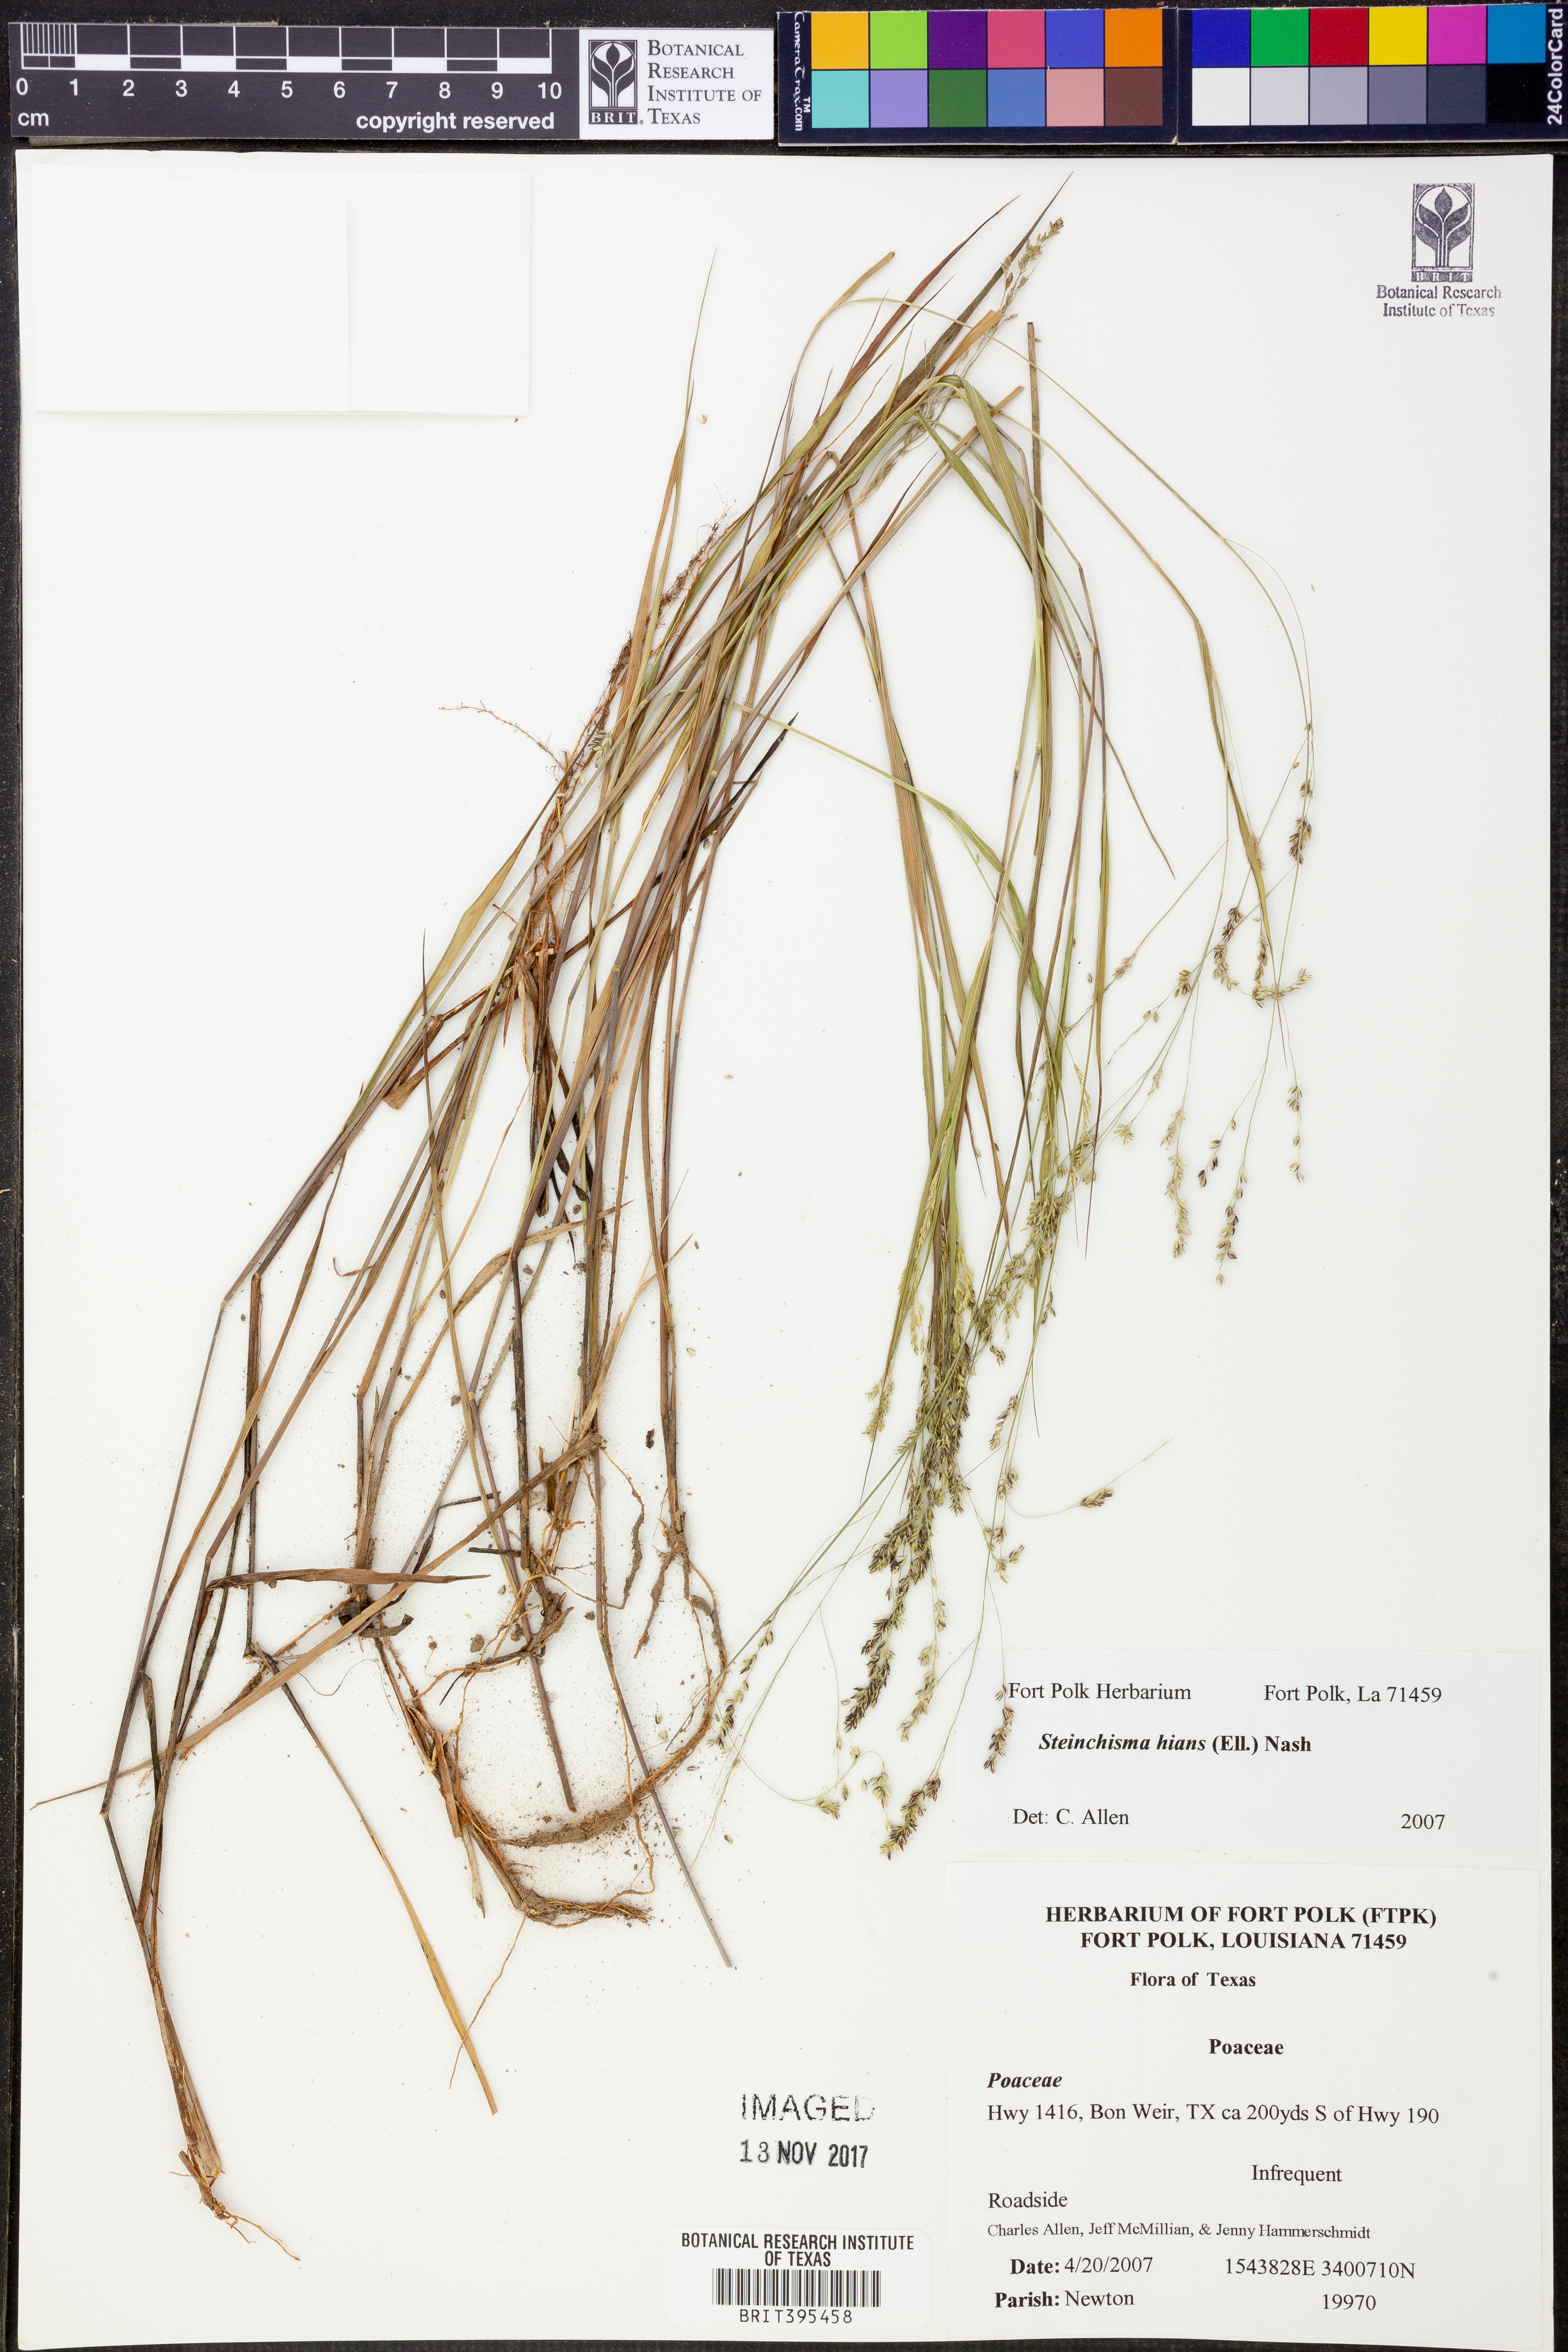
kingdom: Plantae
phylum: Tracheophyta
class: Liliopsida
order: Poales
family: Poaceae
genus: Steinchisma
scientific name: Steinchisma hians
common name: Gaping panic grass
